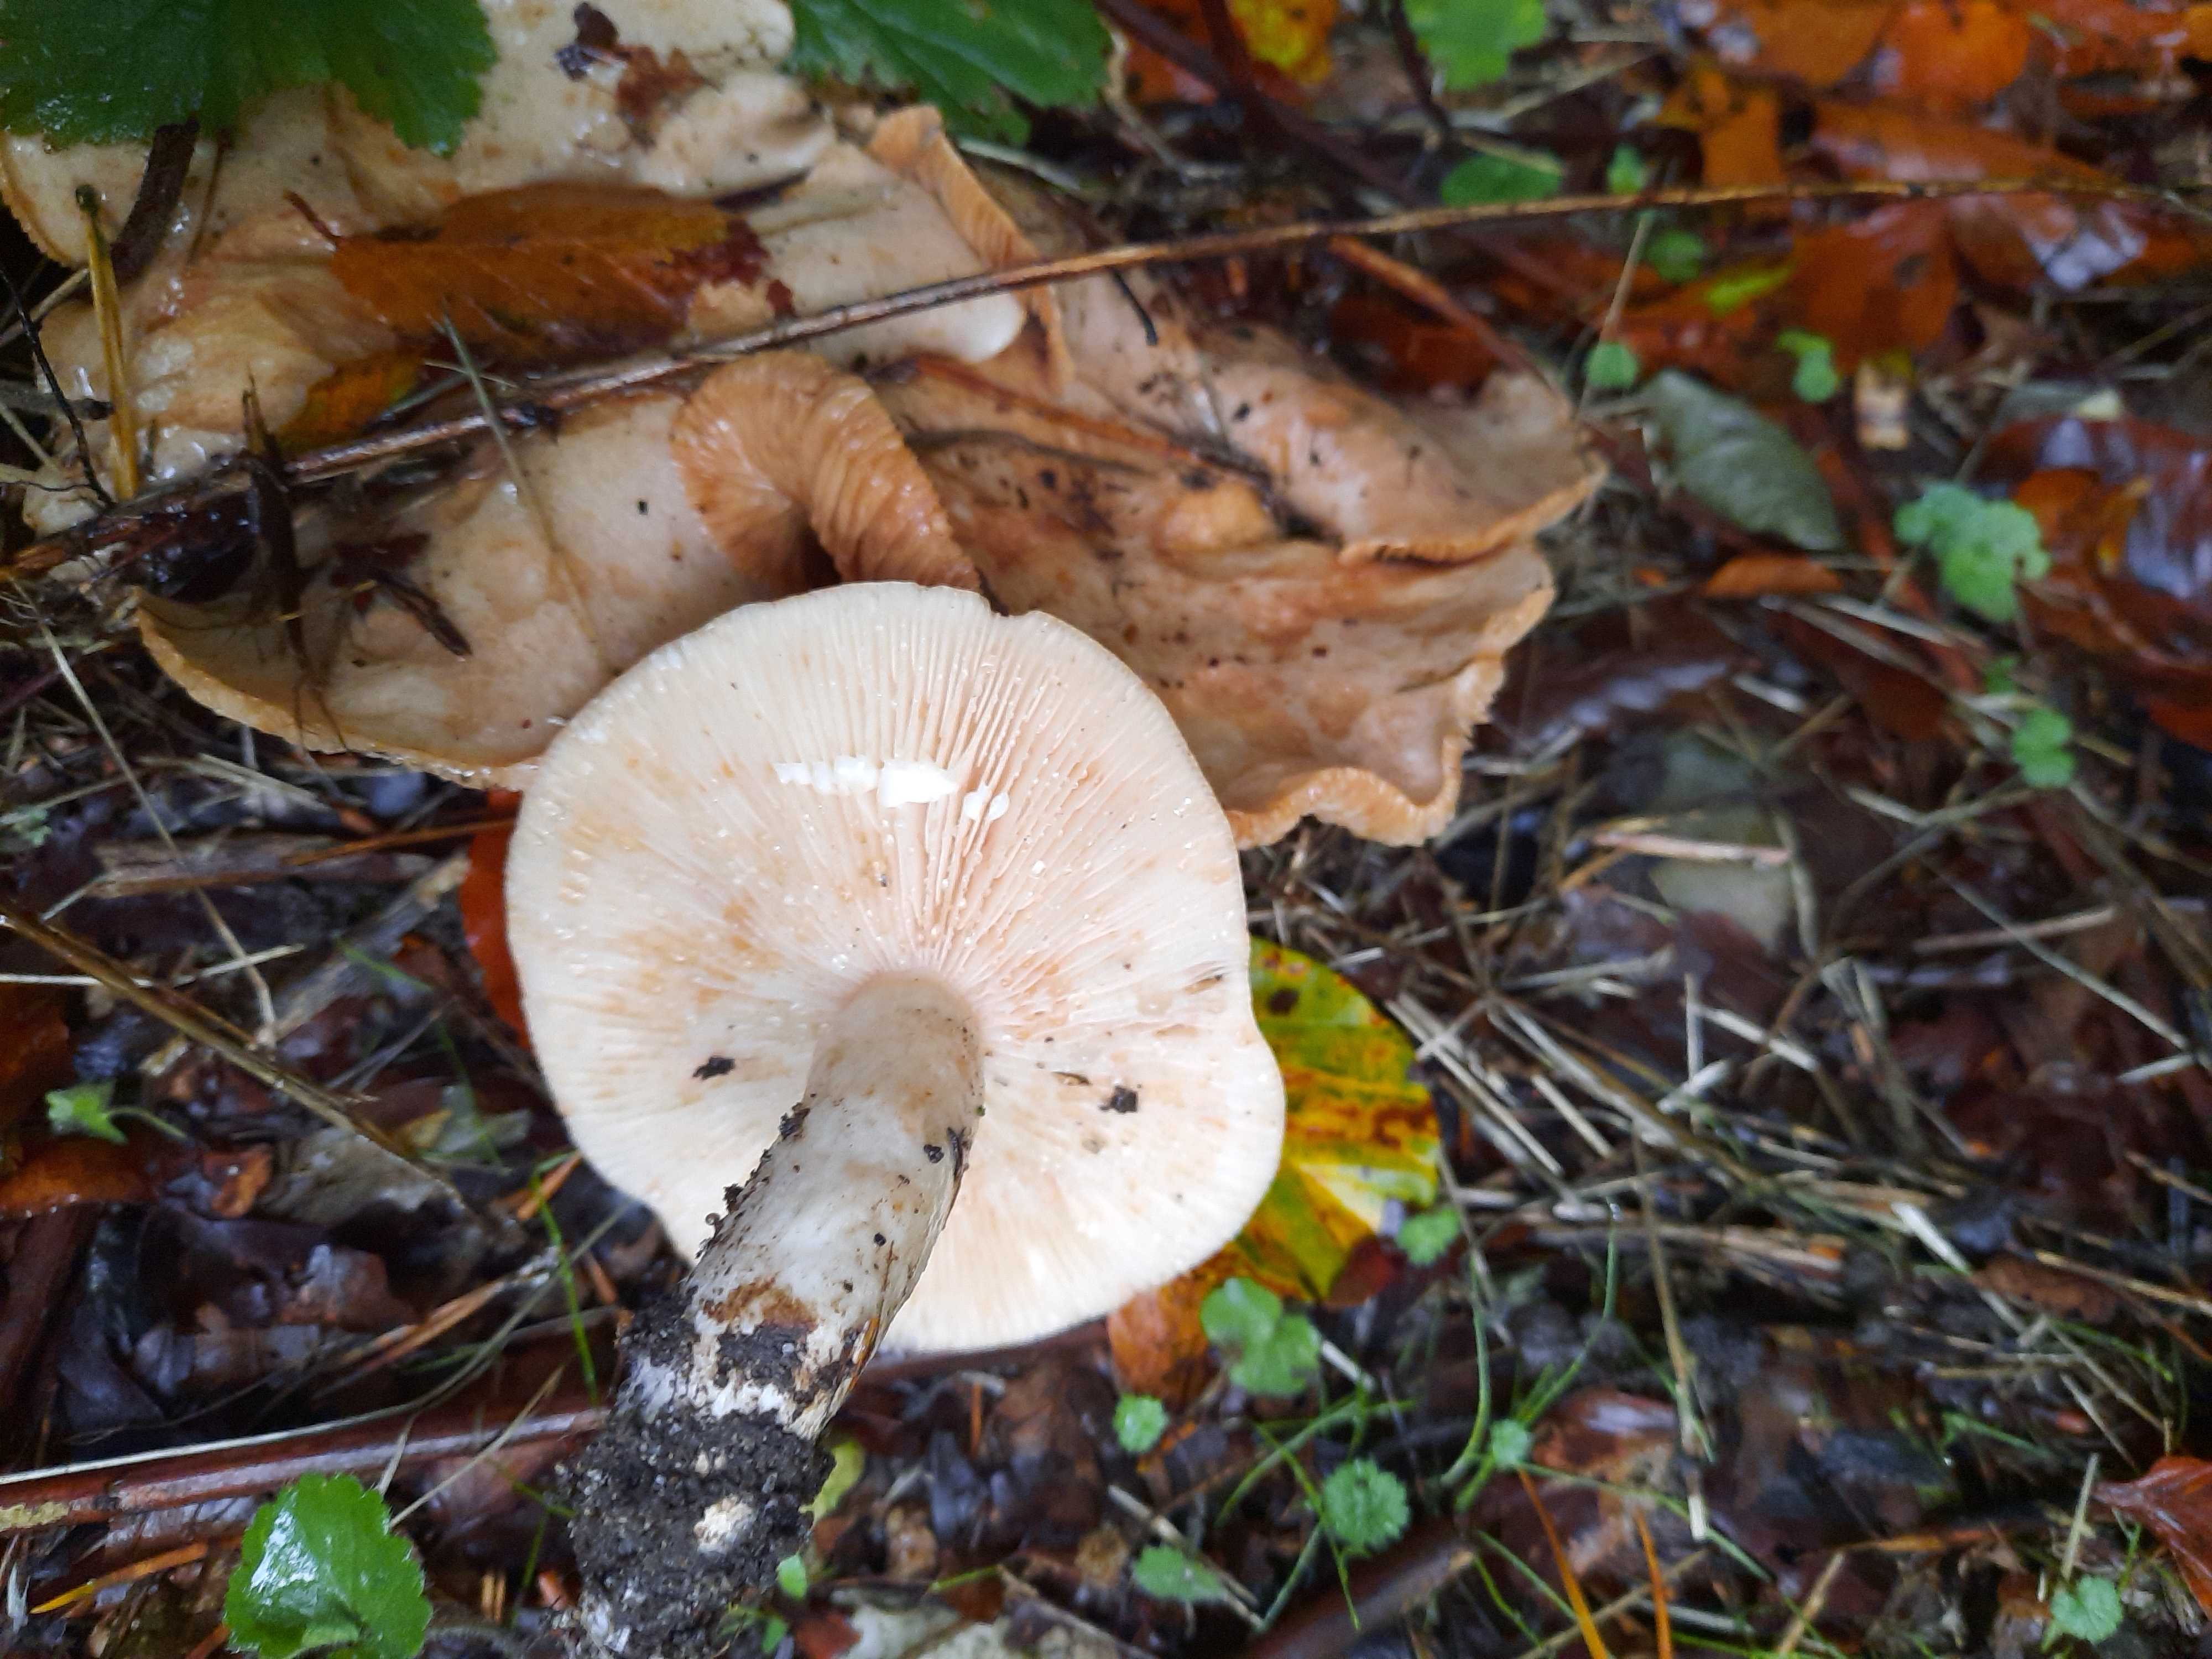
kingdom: Fungi
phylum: Basidiomycota
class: Agaricomycetes
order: Russulales
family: Russulaceae
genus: Lactarius
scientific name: Lactarius pallidus
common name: bleg mælkehat
